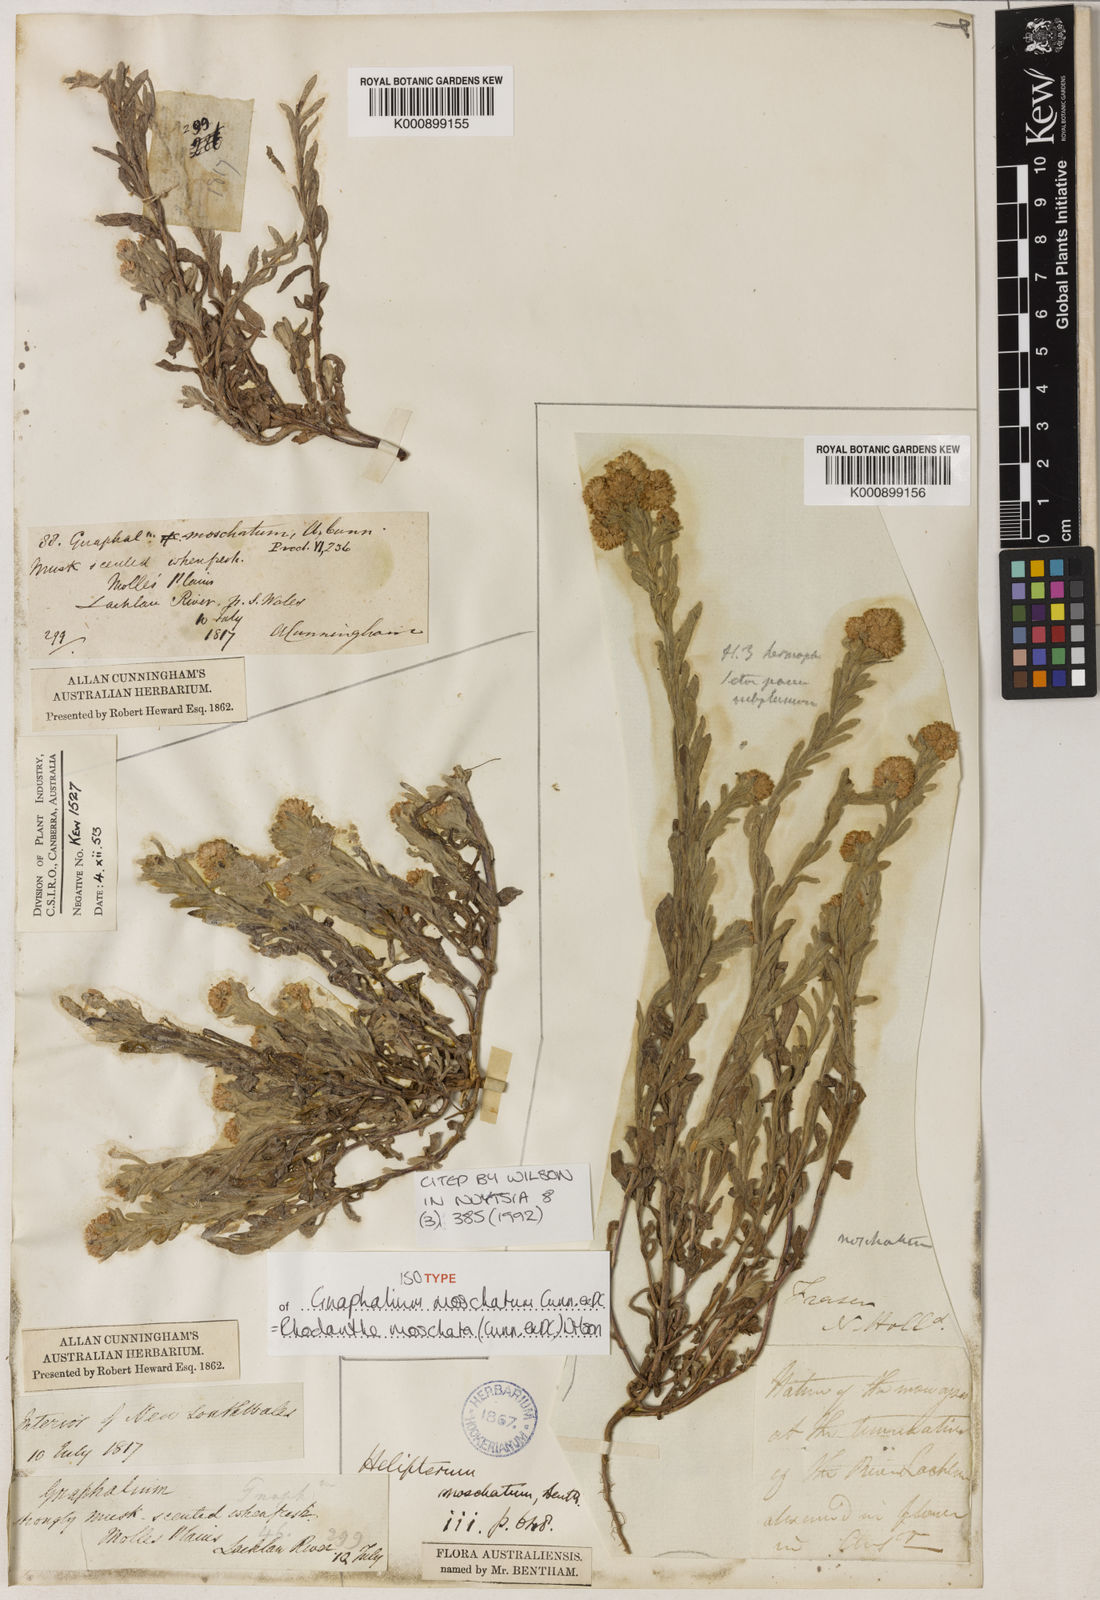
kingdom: Plantae
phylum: Tracheophyta
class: Magnoliopsida
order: Asterales
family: Asteraceae
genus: Gnaphalium
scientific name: Gnaphalium
